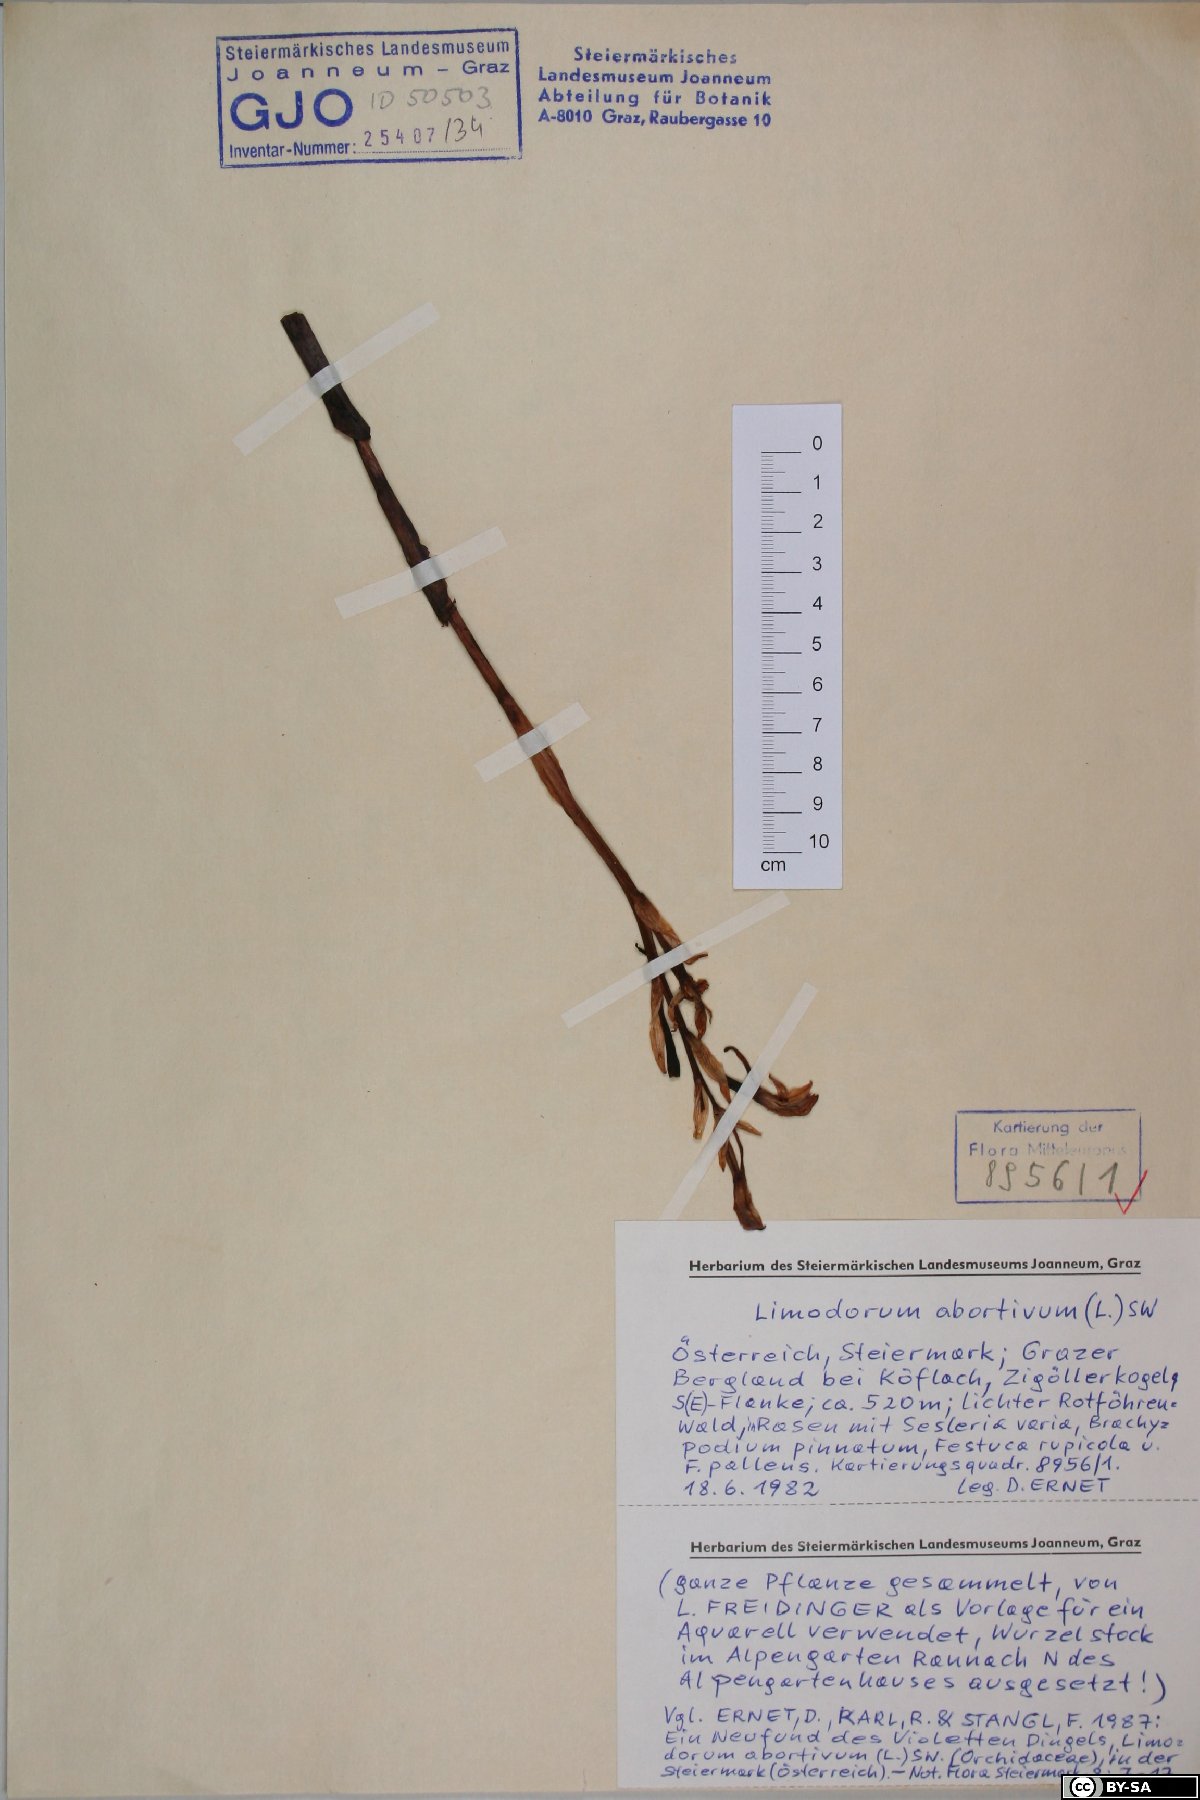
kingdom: Plantae
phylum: Tracheophyta
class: Liliopsida
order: Asparagales
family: Orchidaceae
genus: Limodorum
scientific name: Limodorum abortivum
